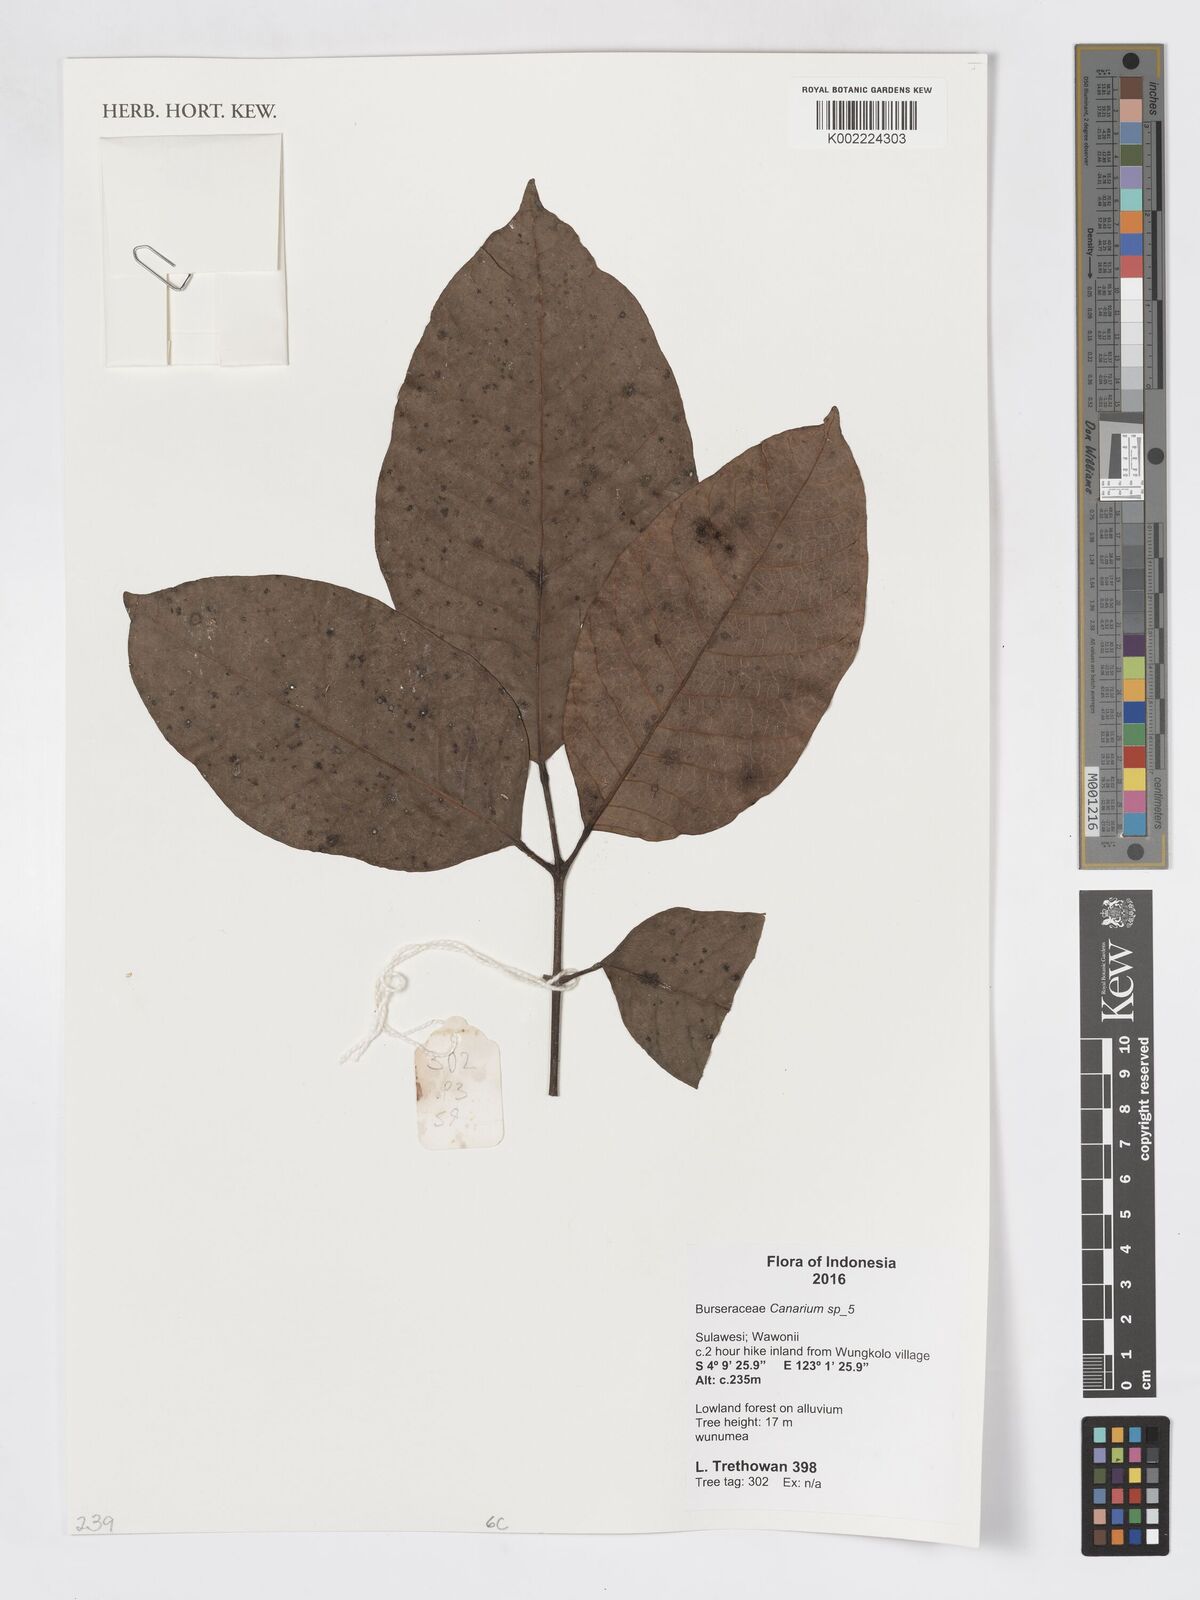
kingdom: Plantae
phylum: Tracheophyta
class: Magnoliopsida
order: Sapindales
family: Burseraceae
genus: Canarium
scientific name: Canarium
